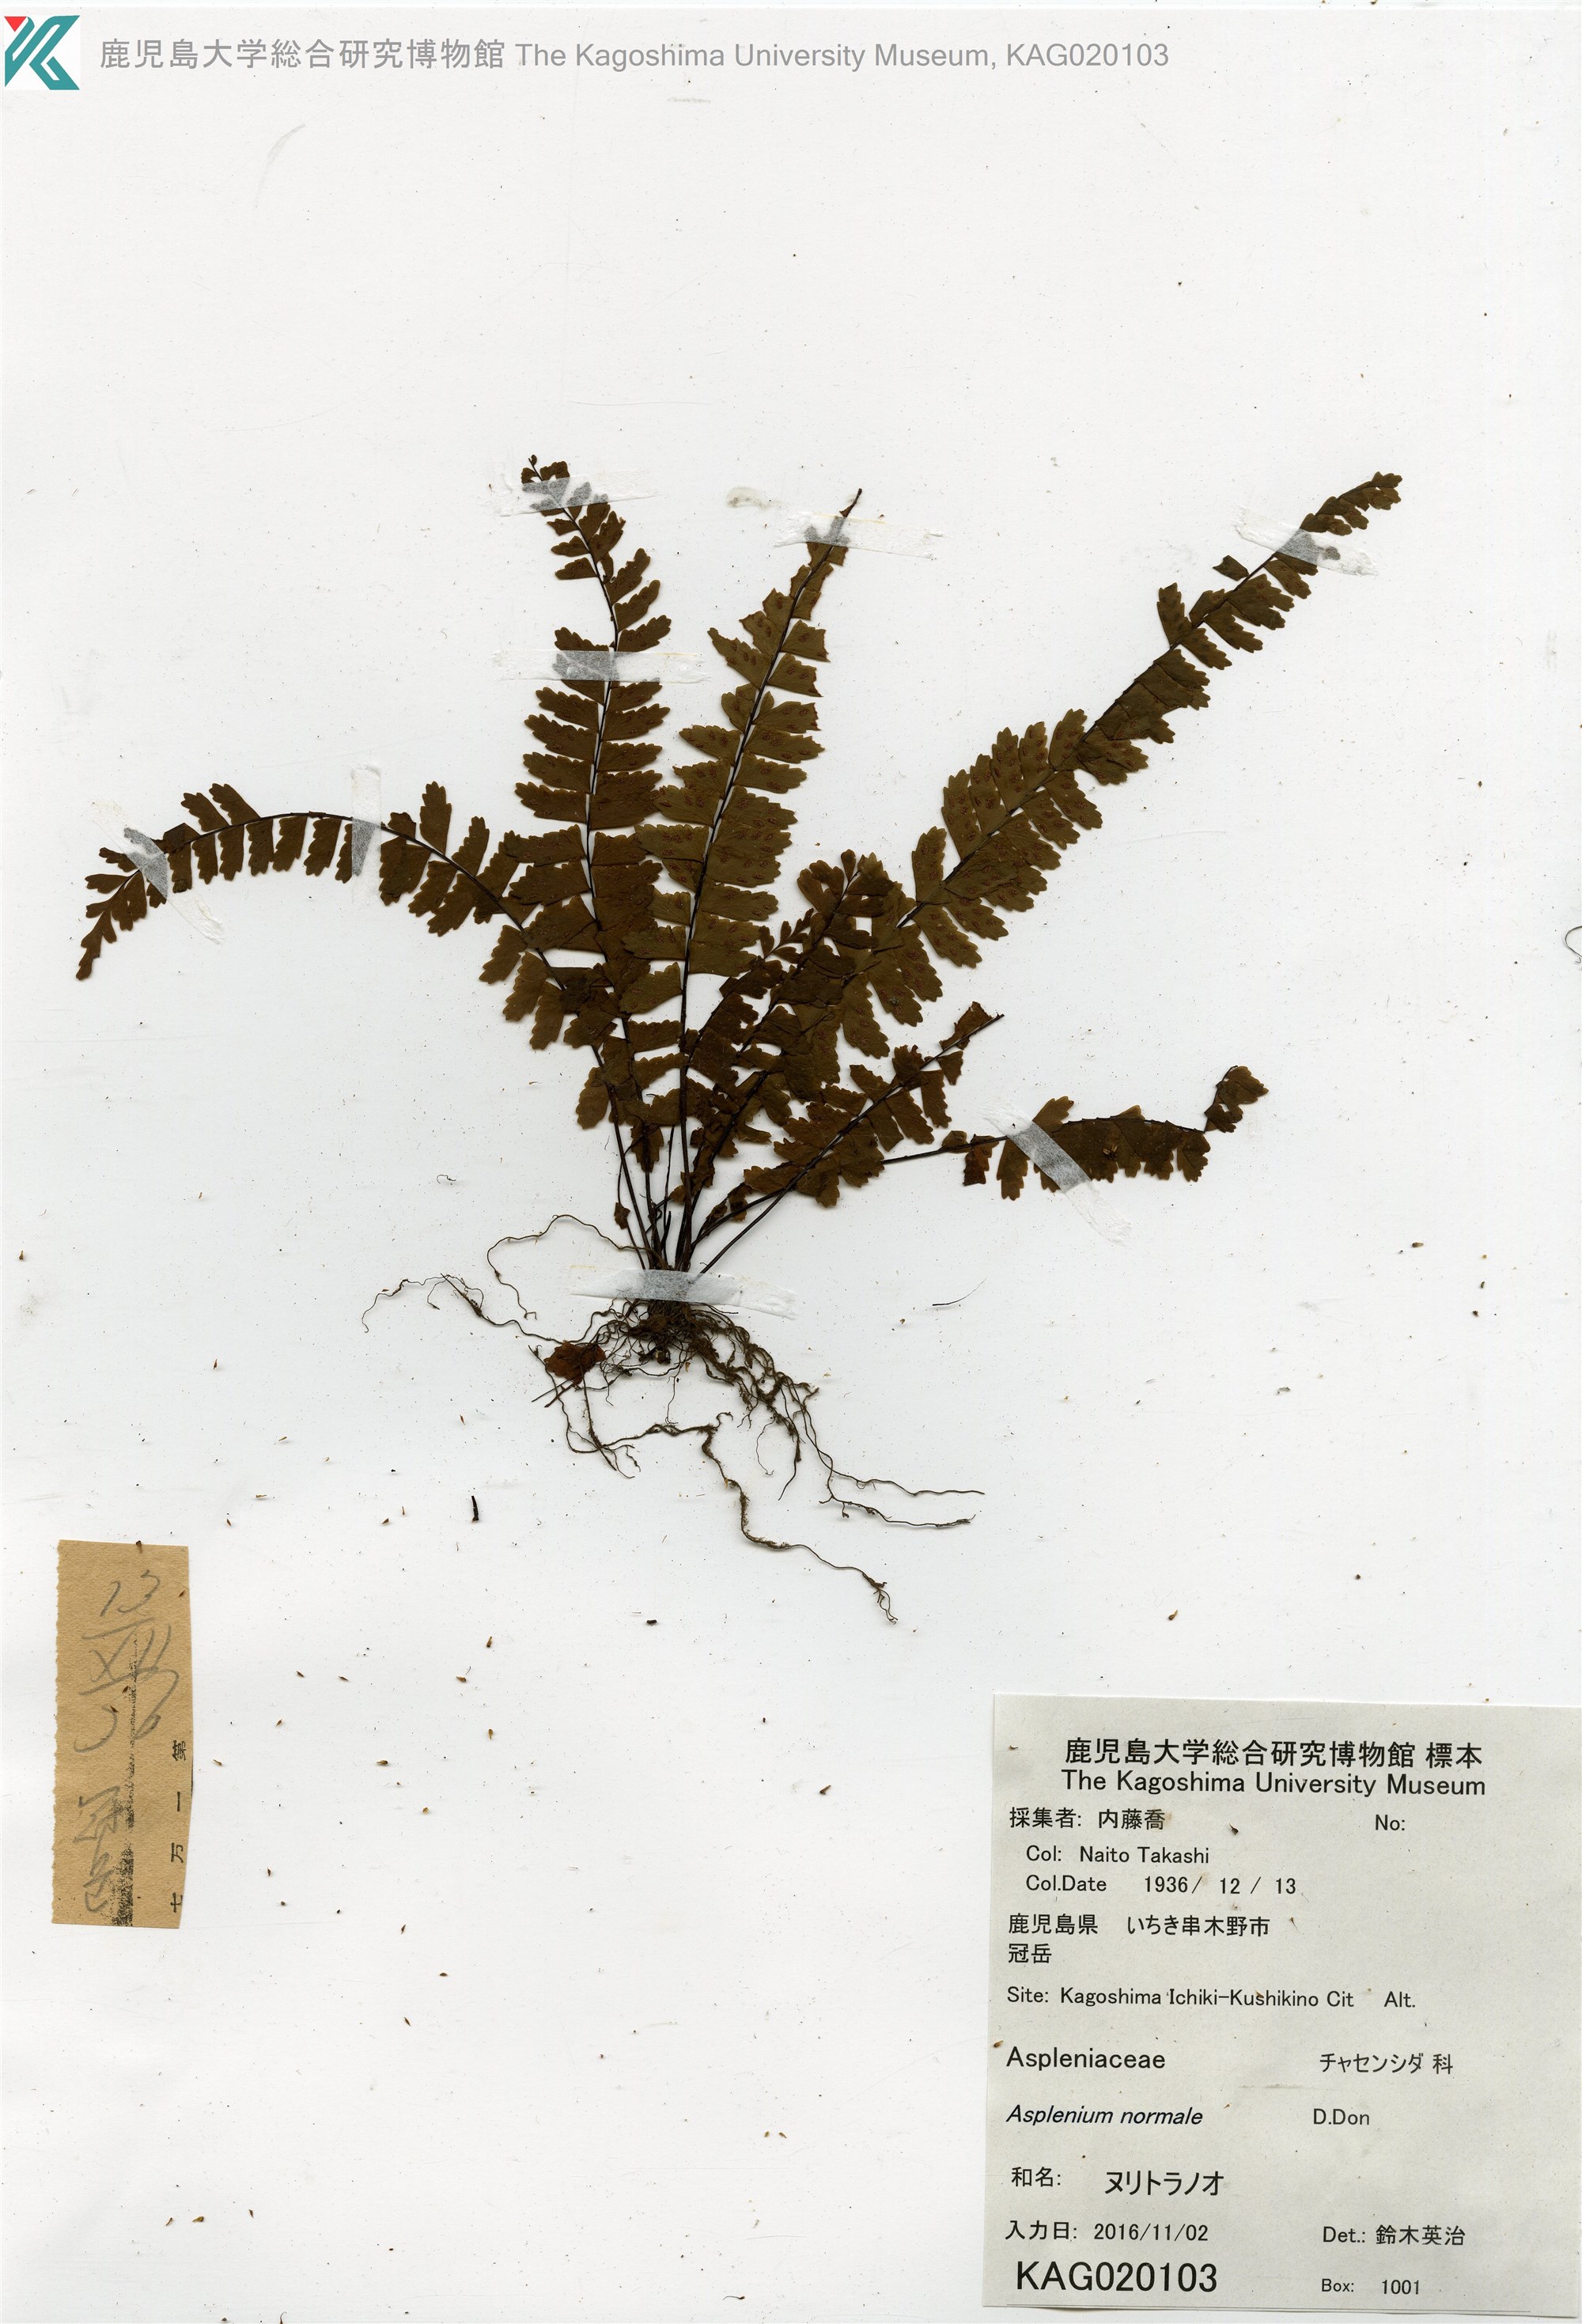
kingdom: Plantae
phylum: Tracheophyta
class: Polypodiopsida
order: Polypodiales
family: Aspleniaceae
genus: Asplenium
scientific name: Asplenium serratipinnae
